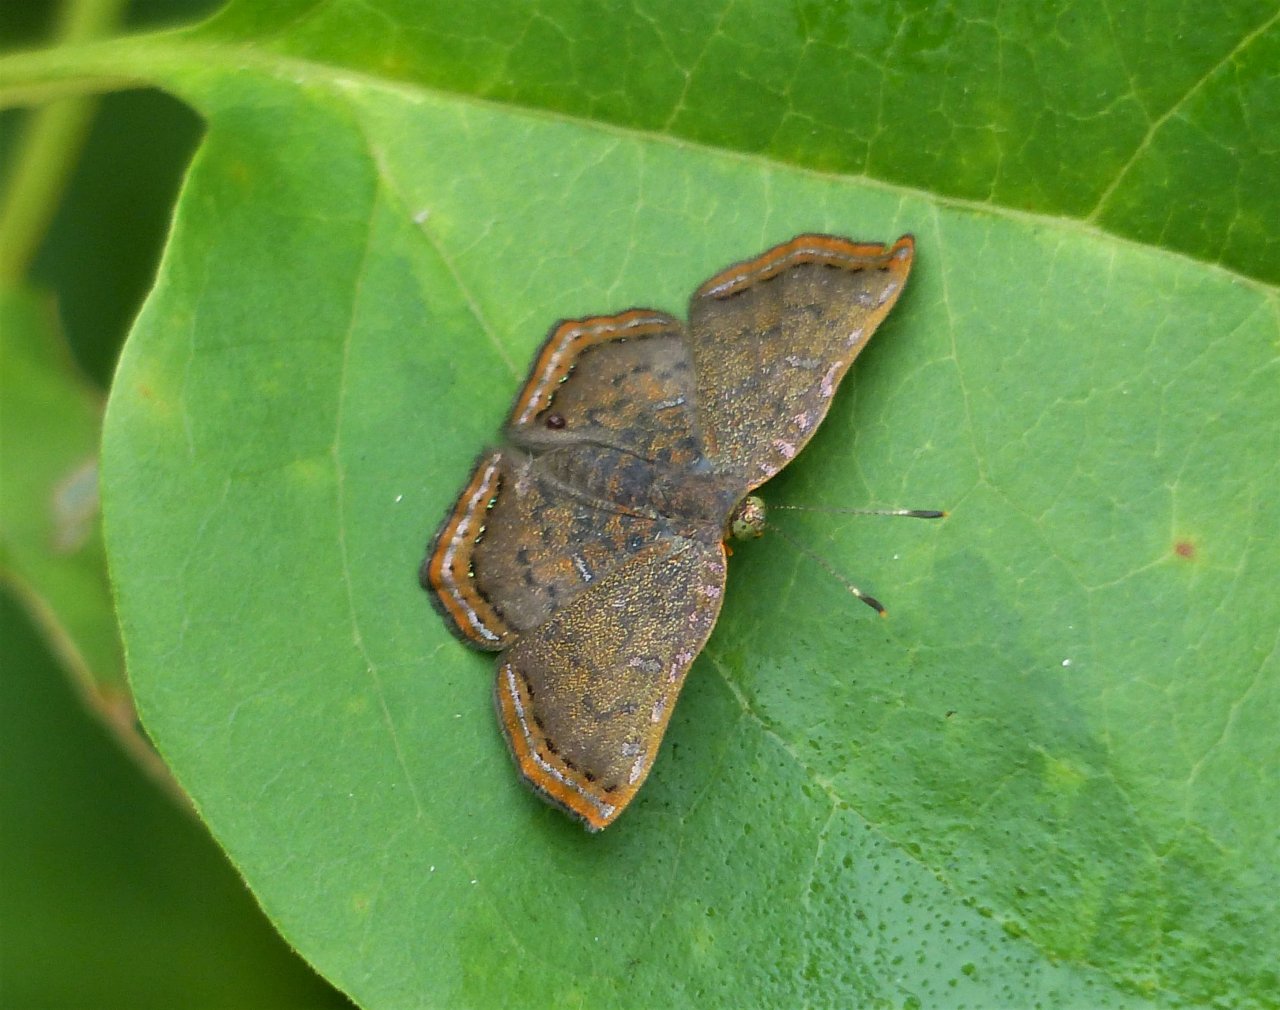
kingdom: Animalia
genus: Caria
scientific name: Caria ino
